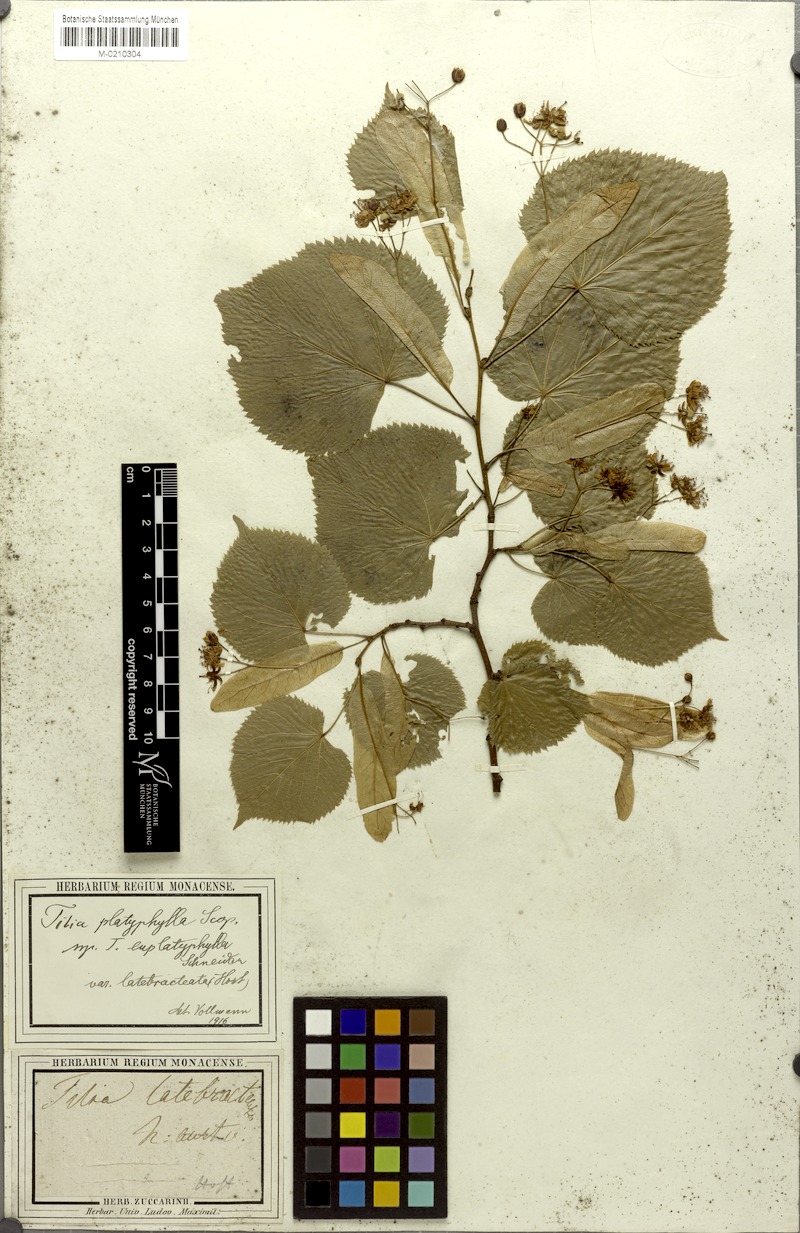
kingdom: Plantae
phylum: Tracheophyta
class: Magnoliopsida
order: Malvales
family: Malvaceae
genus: Tilia
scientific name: Tilia platyphyllos
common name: Large-leaved lime
